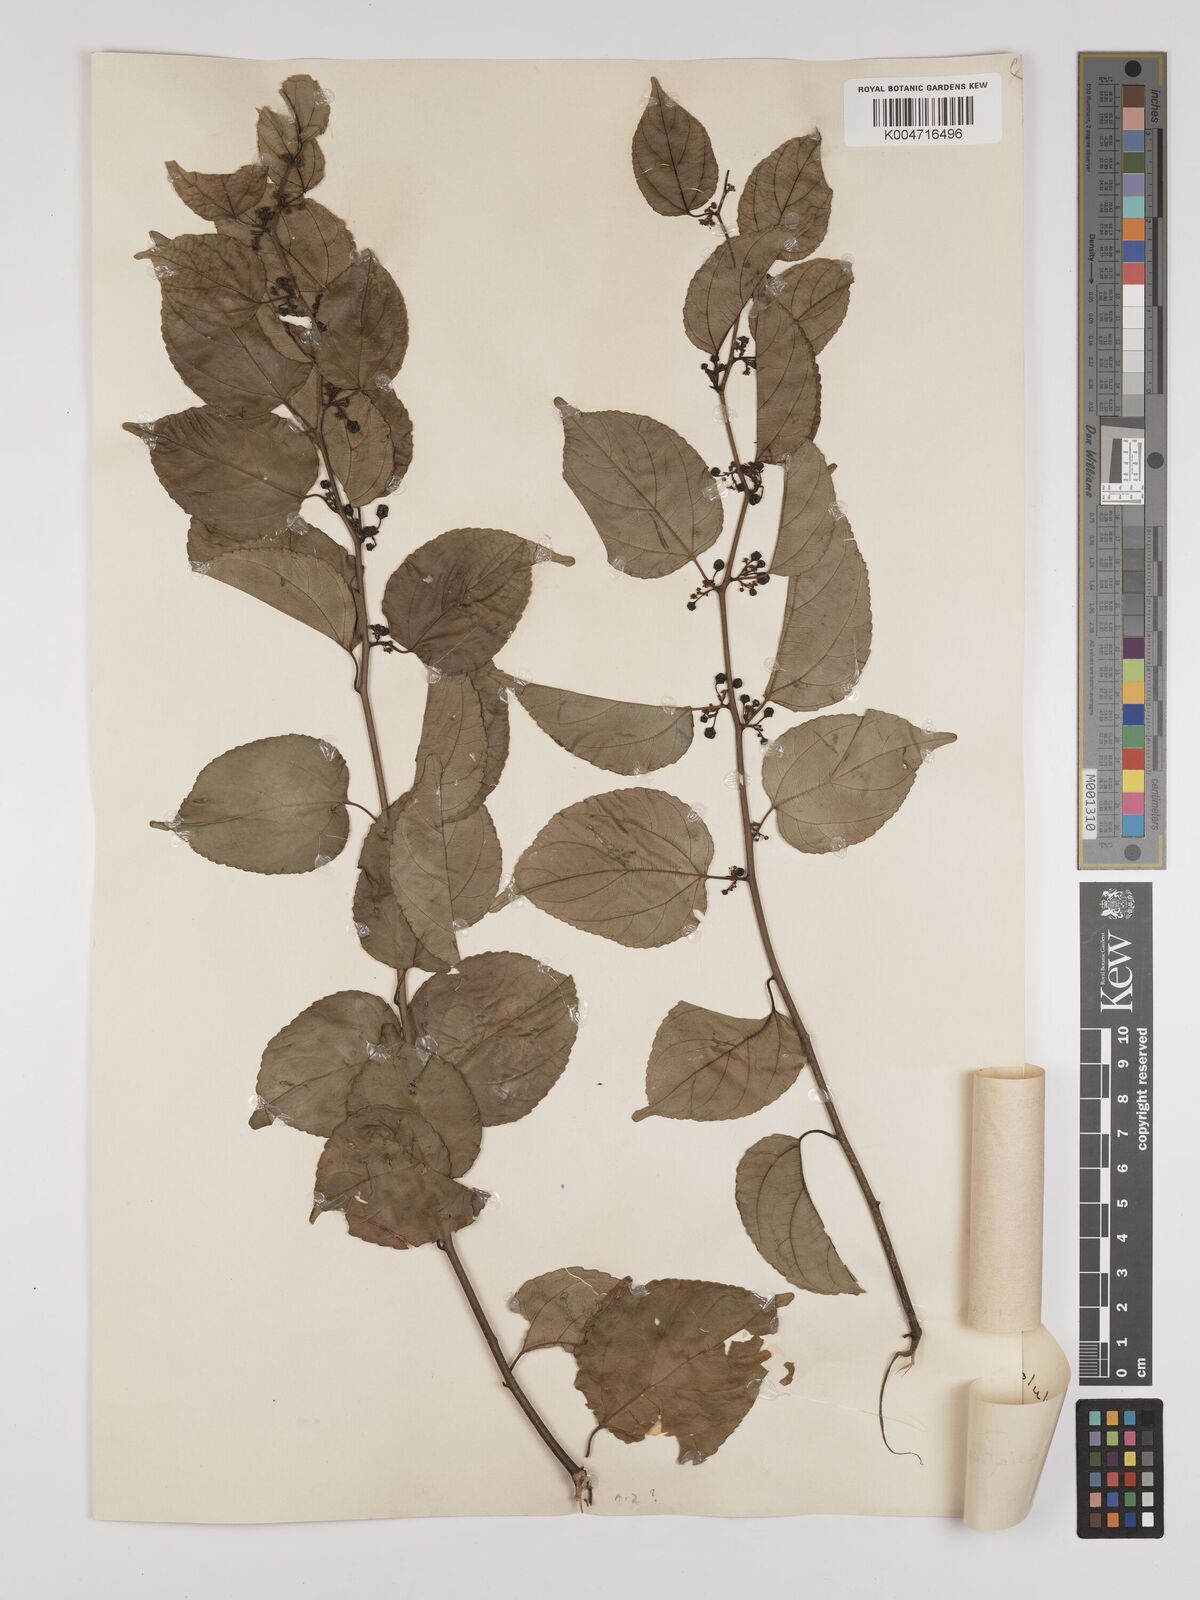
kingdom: Plantae
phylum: Tracheophyta
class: Magnoliopsida
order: Rosales
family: Rhamnaceae
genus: Colubrina
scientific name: Colubrina asiatica
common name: Asian nakedwood
